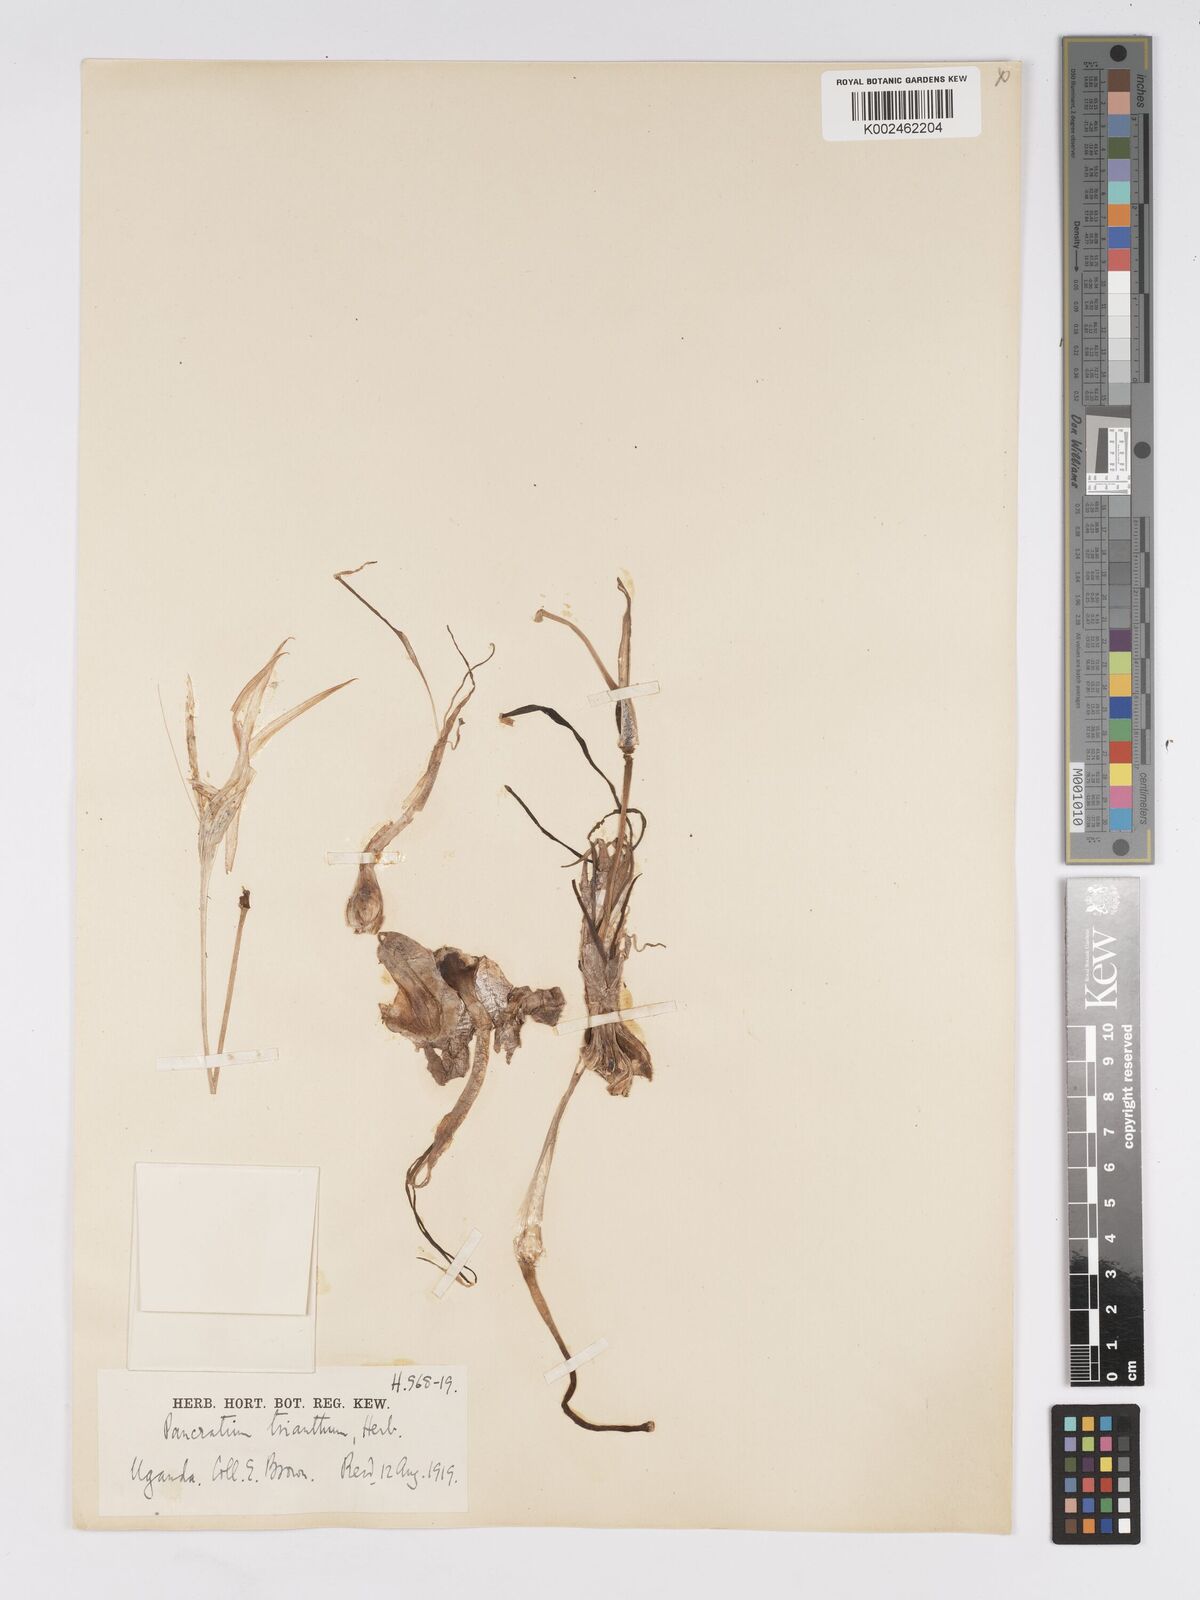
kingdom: Plantae
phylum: Tracheophyta
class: Liliopsida
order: Asparagales
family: Amaryllidaceae
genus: Pancratium
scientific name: Pancratium tenuifolium
